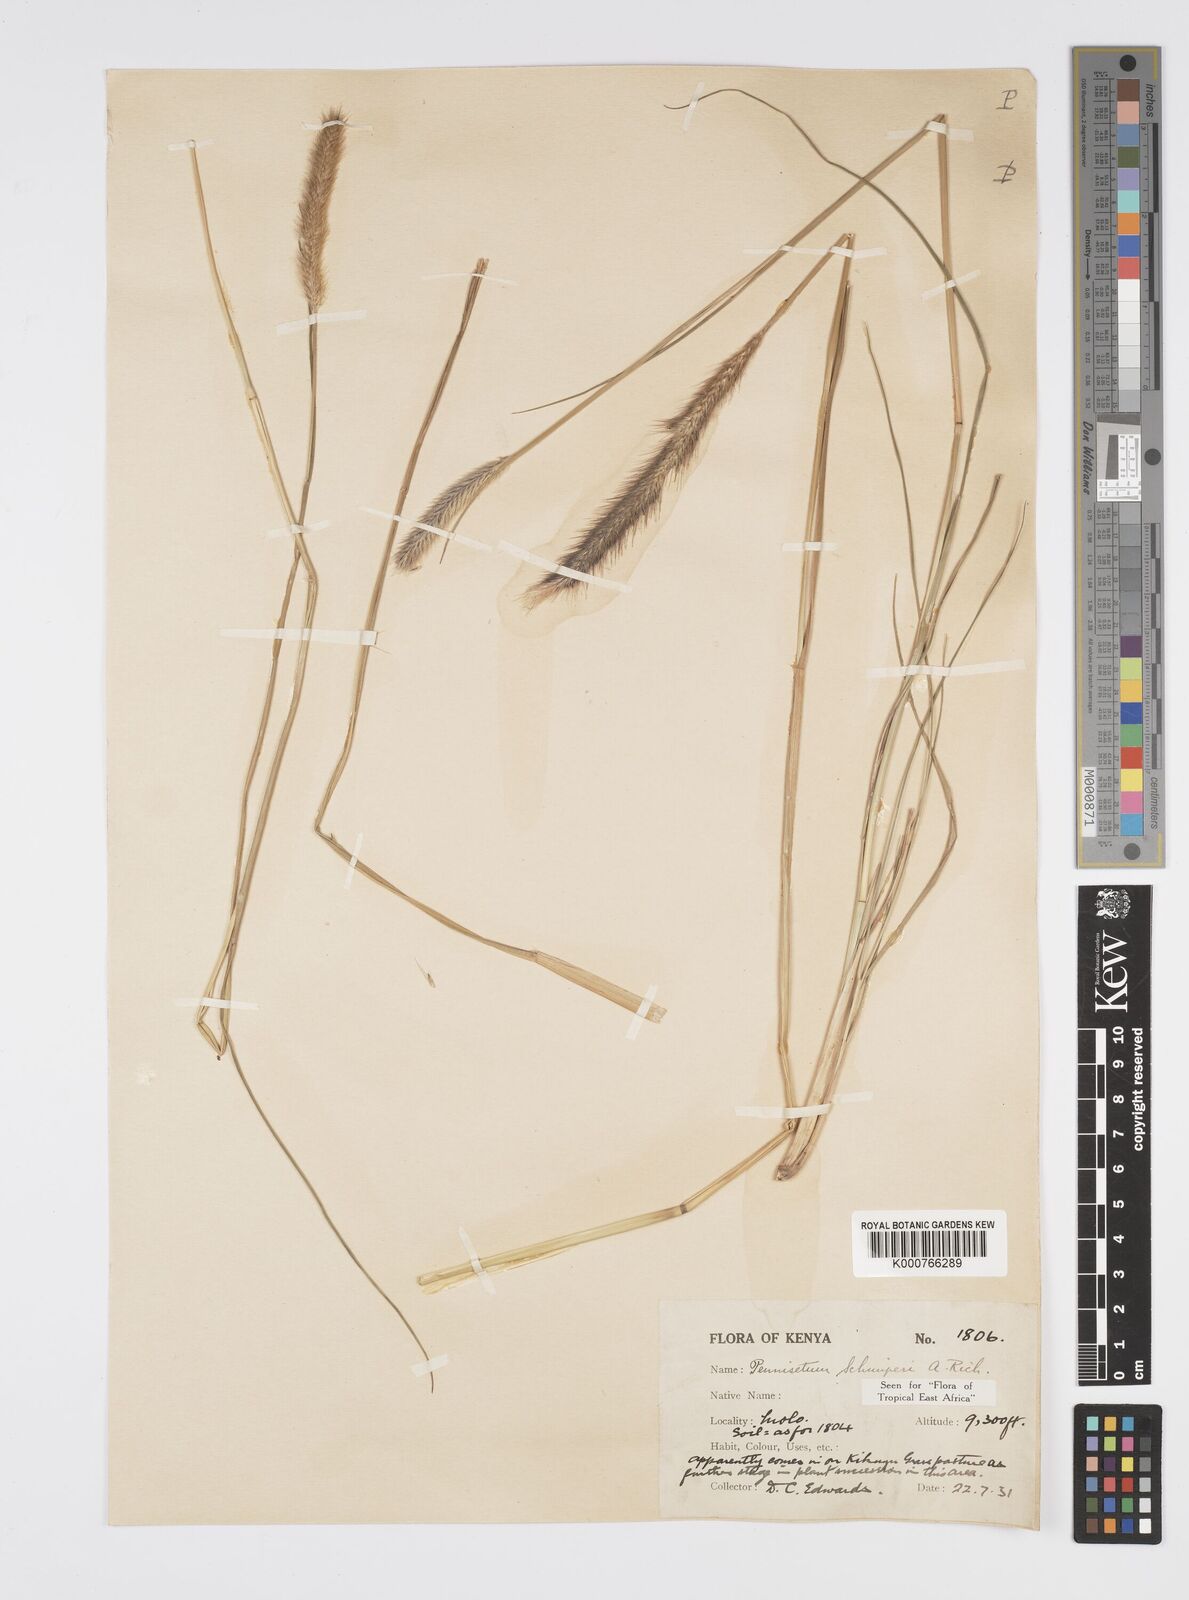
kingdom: Plantae
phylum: Tracheophyta
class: Liliopsida
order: Poales
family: Poaceae
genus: Cenchrus
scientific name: Cenchrus sphacelatus
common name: Bulgras
